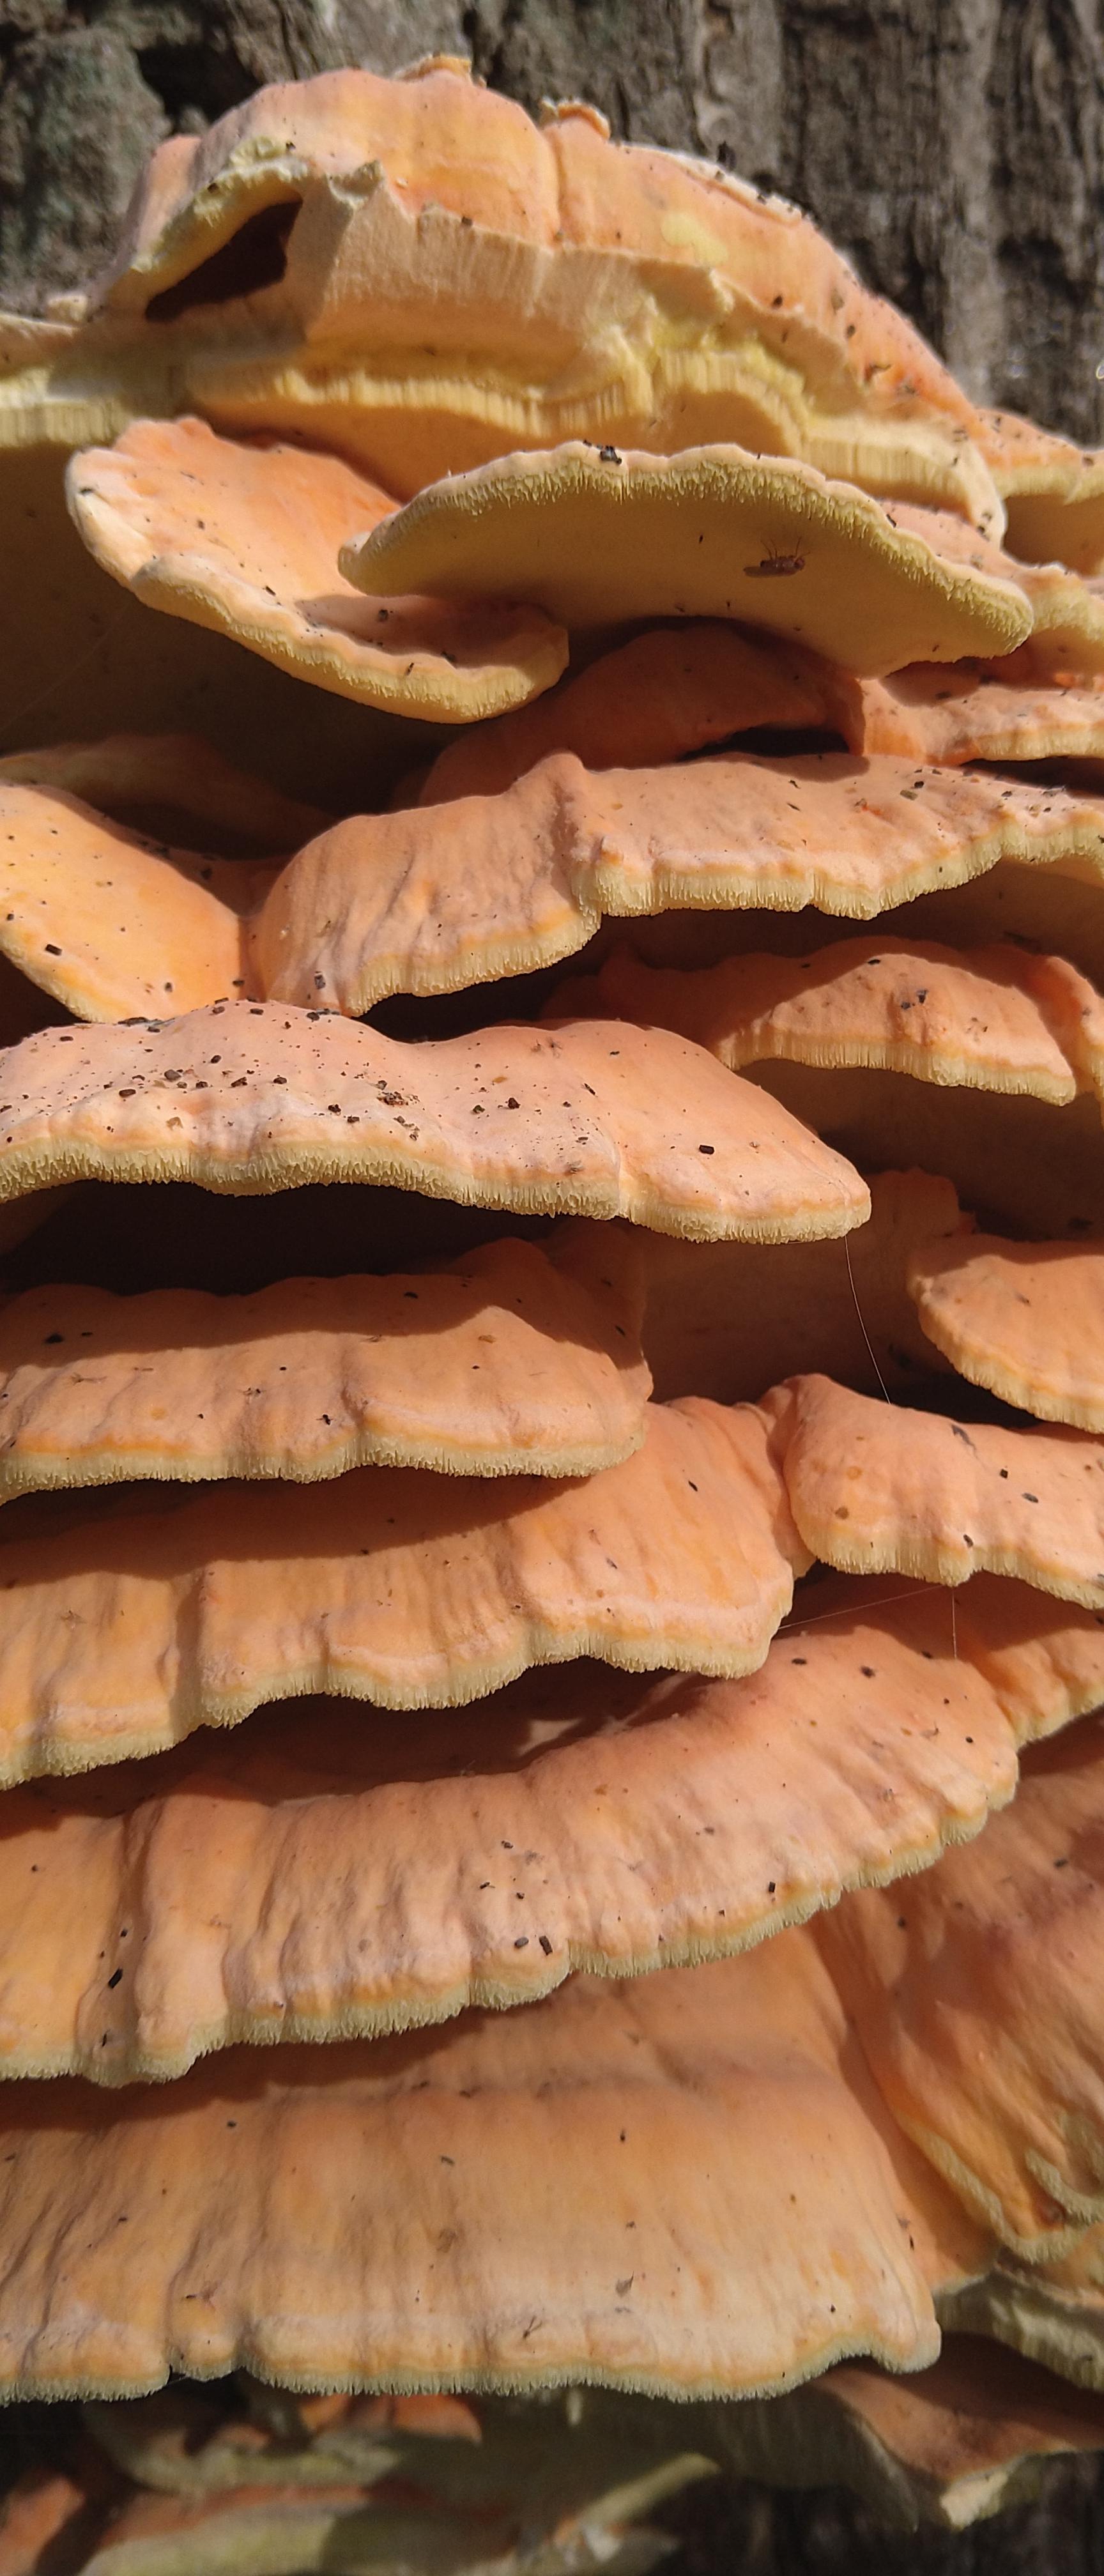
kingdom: Fungi
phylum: Basidiomycota
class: Agaricomycetes
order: Polyporales
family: Laetiporaceae
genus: Laetiporus
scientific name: Laetiporus sulphureus
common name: svovlporesvamp
